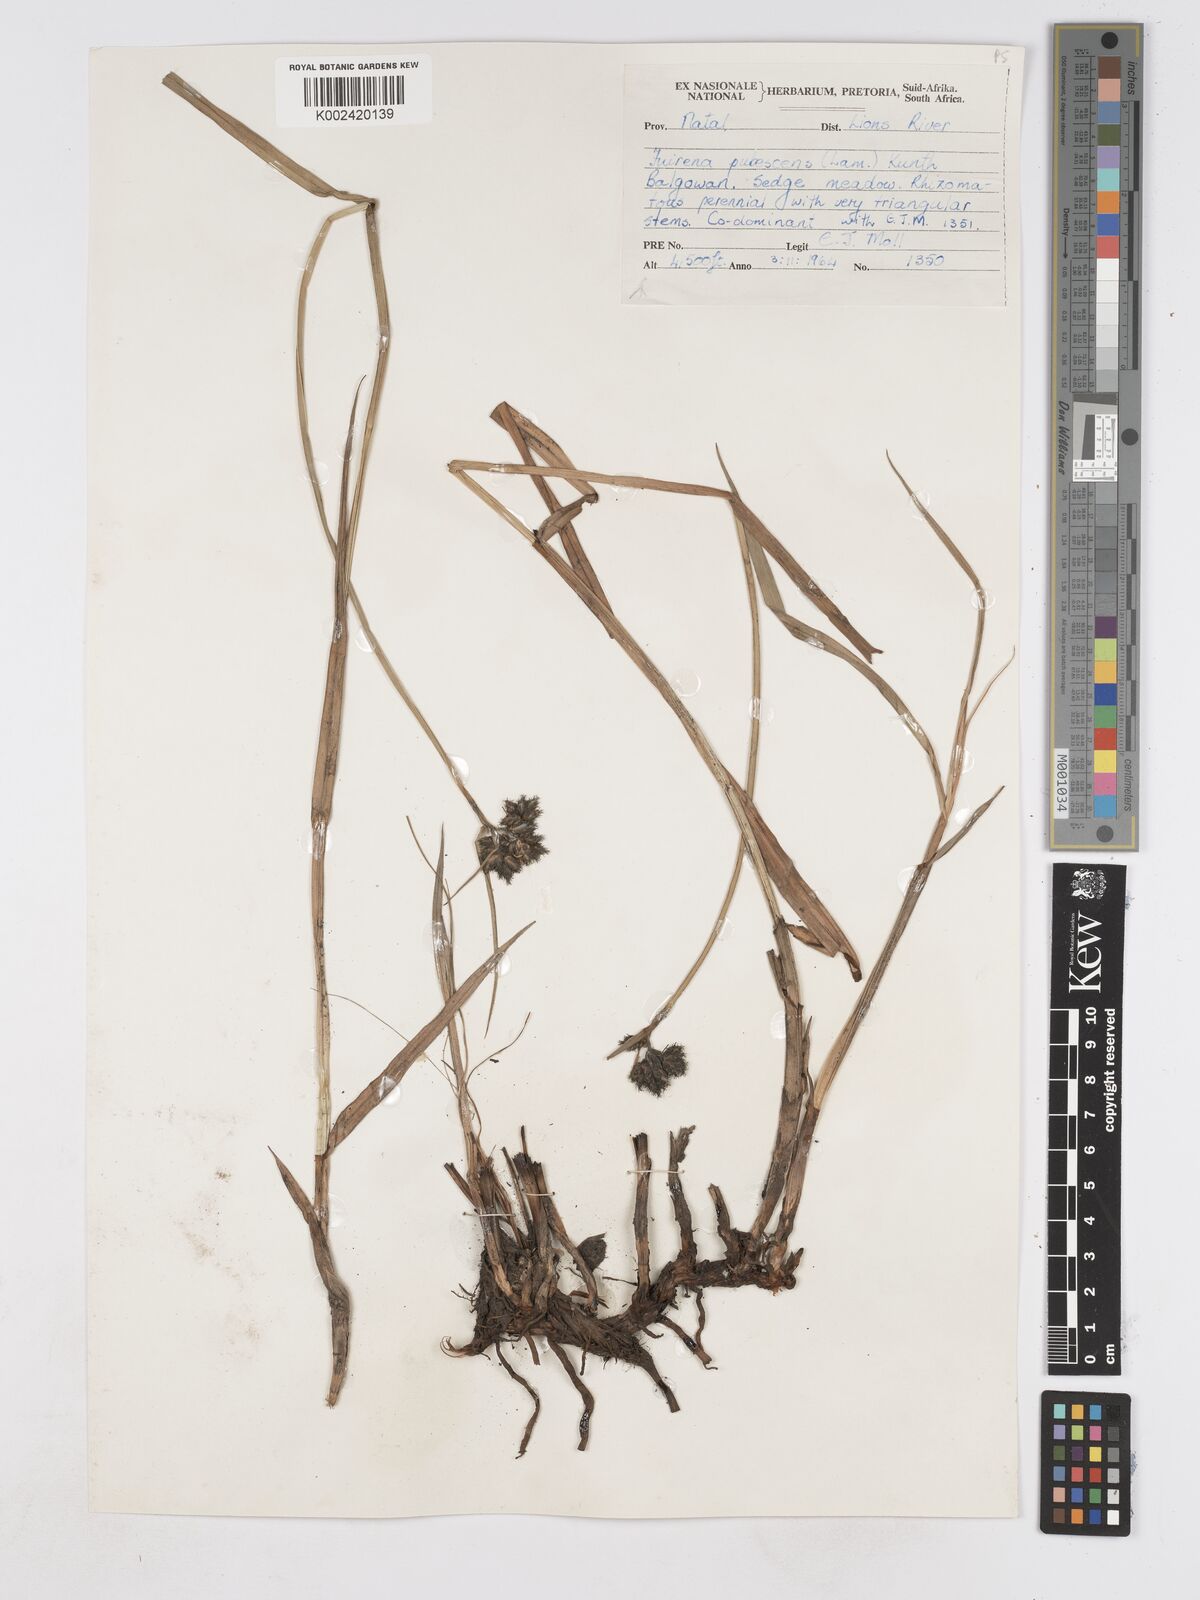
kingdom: Plantae
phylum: Tracheophyta
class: Liliopsida
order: Poales
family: Cyperaceae
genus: Fuirena
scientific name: Fuirena pubescens
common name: Hairy sedge
